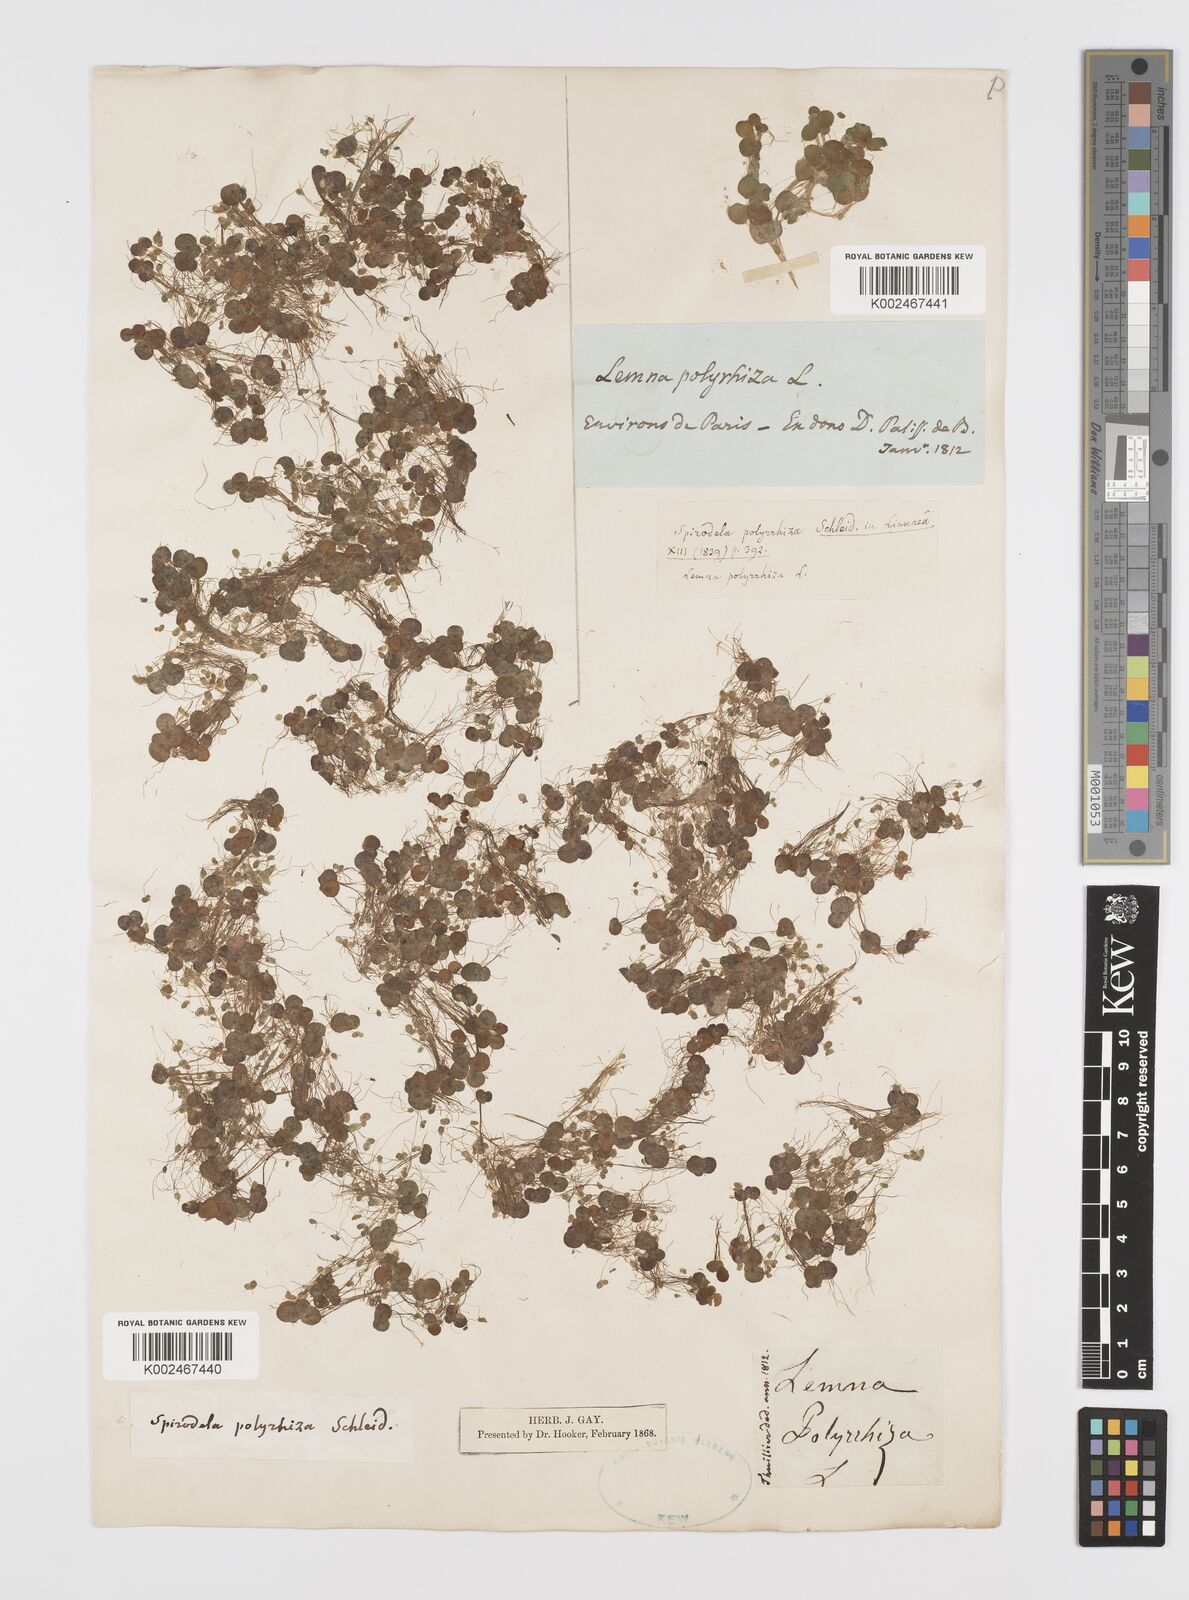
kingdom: Plantae
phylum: Tracheophyta
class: Liliopsida
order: Alismatales
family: Araceae
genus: Spirodela
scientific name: Spirodela polyrhiza
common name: Great duckweed
